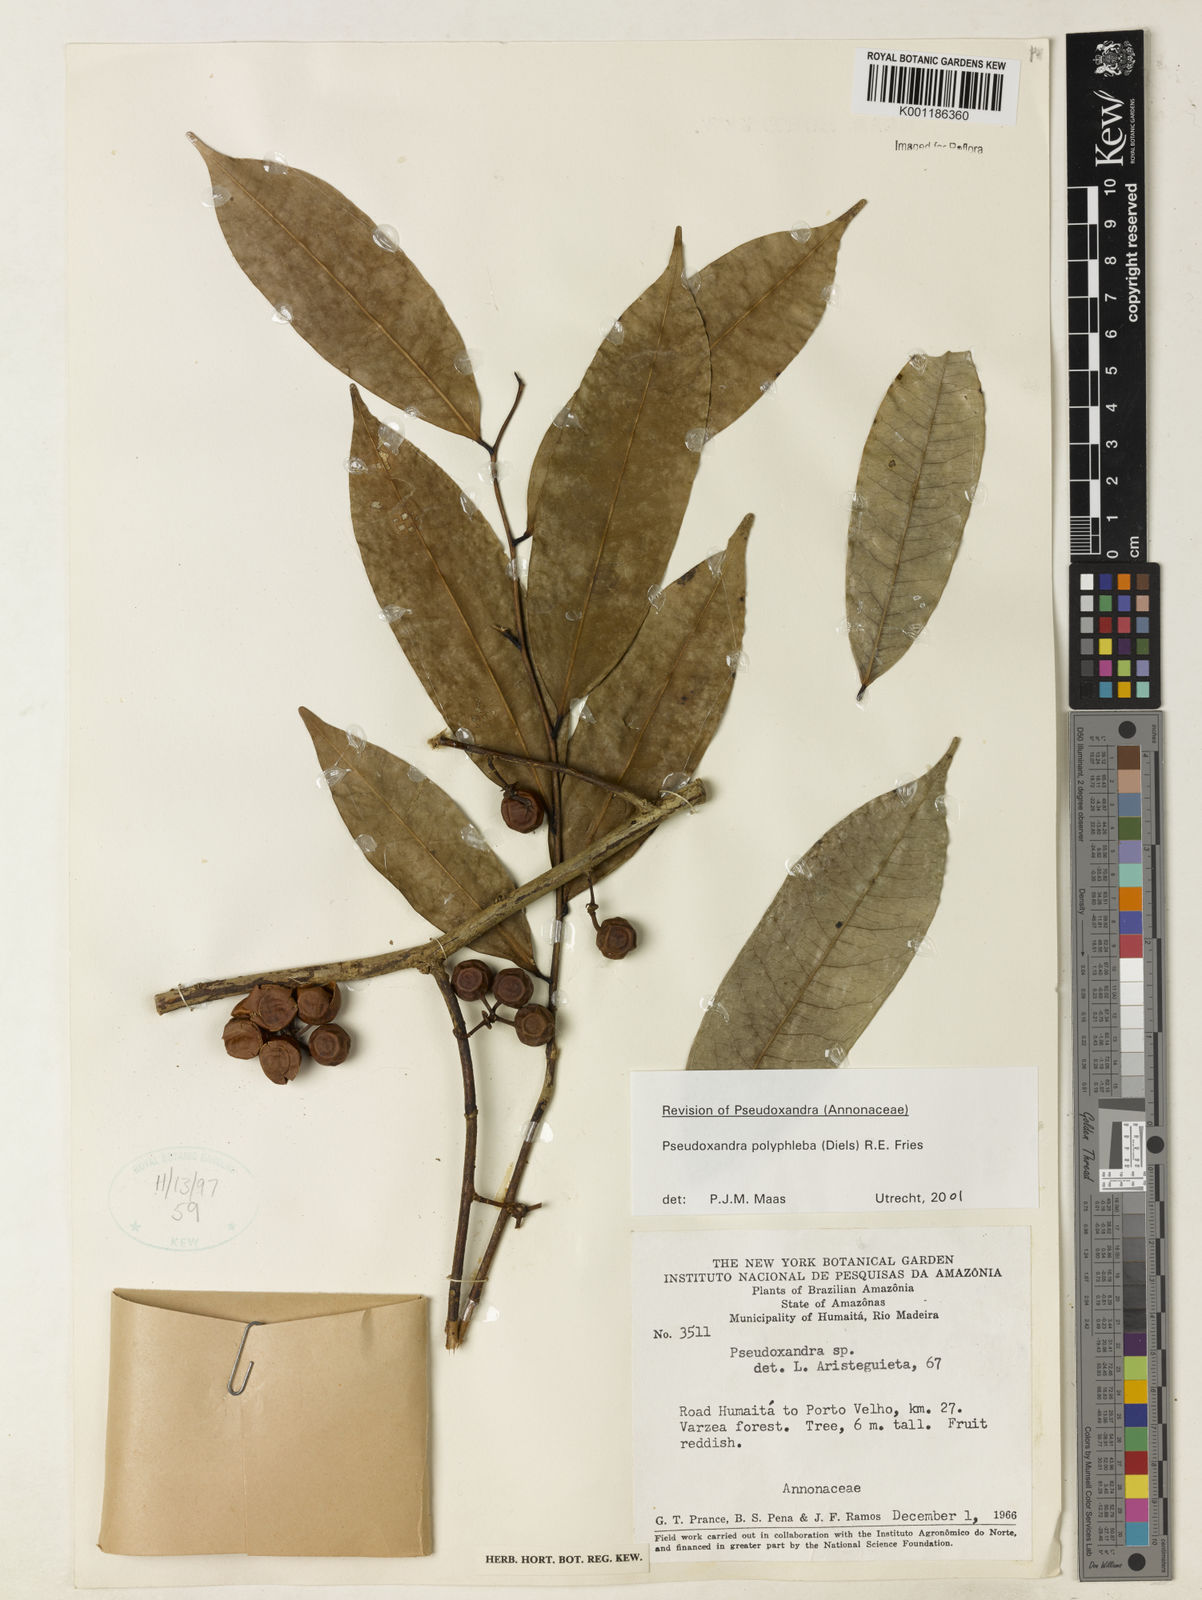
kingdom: Plantae
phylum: Tracheophyta
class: Magnoliopsida
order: Magnoliales
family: Annonaceae
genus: Pseudoxandra
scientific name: Pseudoxandra polyphleba
